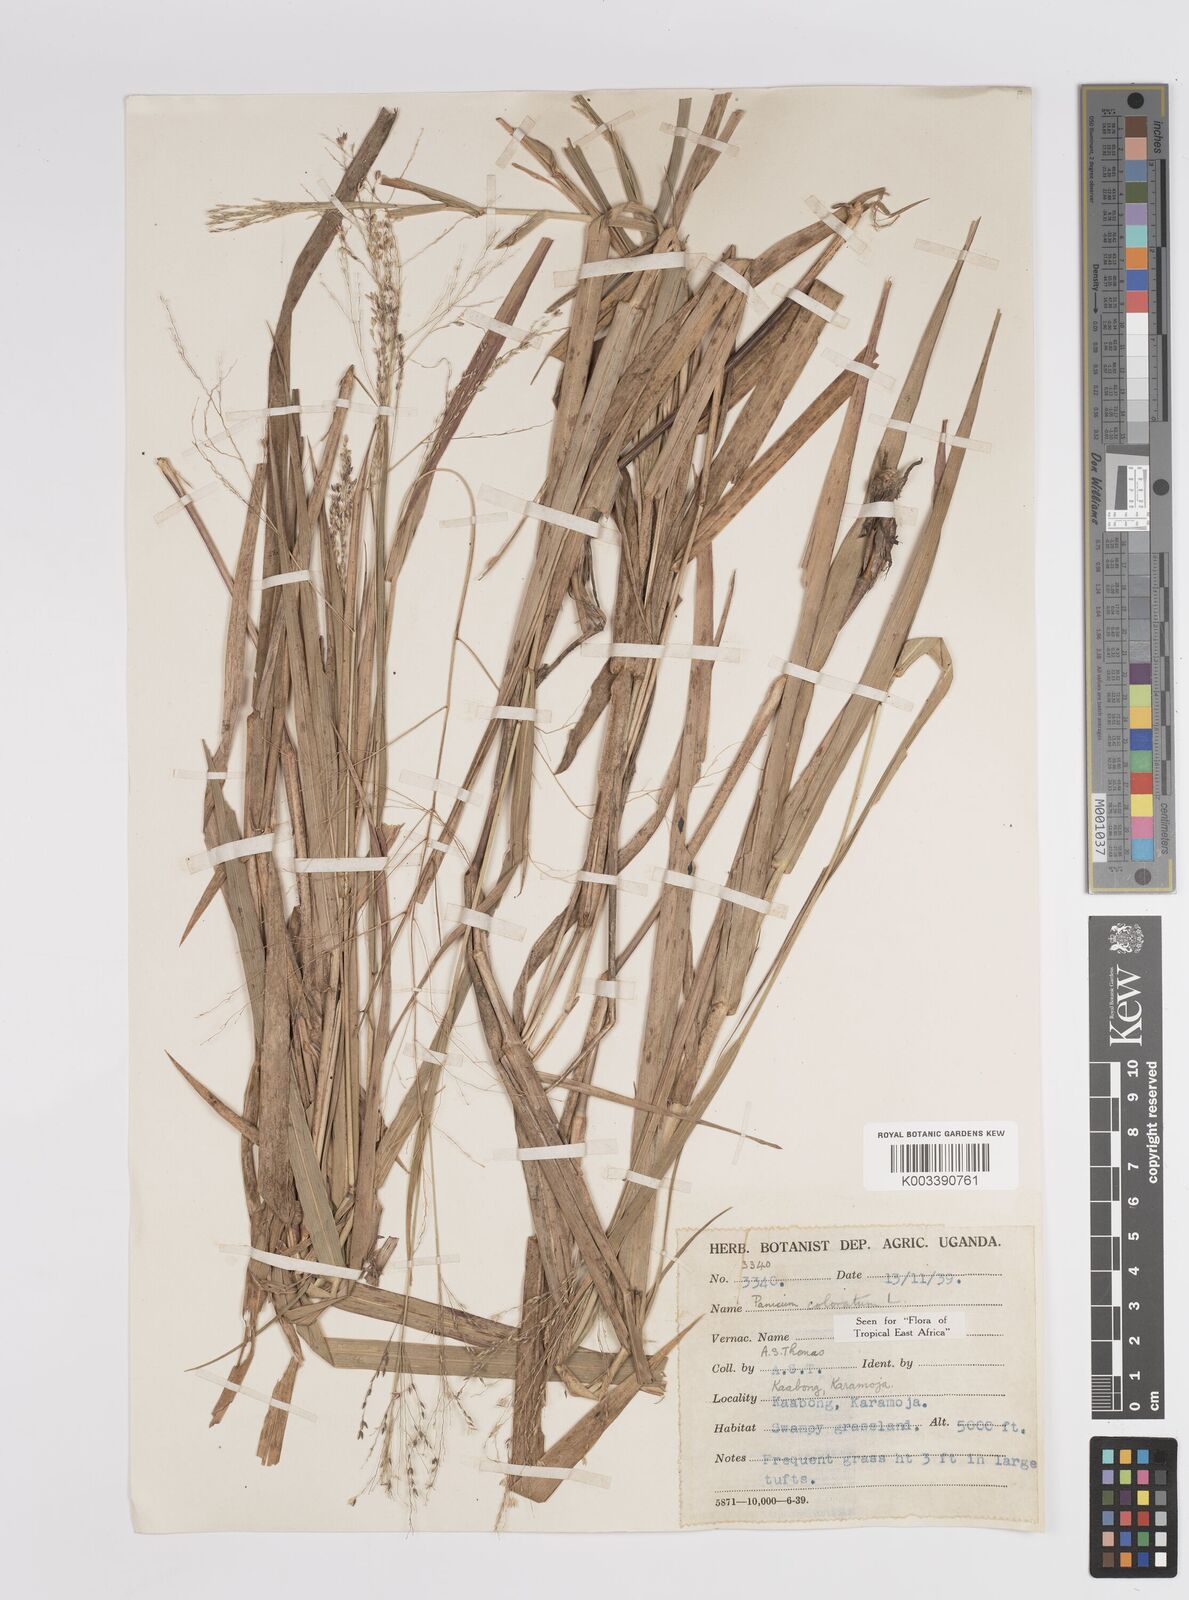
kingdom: Plantae
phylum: Tracheophyta
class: Liliopsida
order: Poales
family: Poaceae
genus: Panicum
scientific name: Panicum coloratum
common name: Kleingrass
